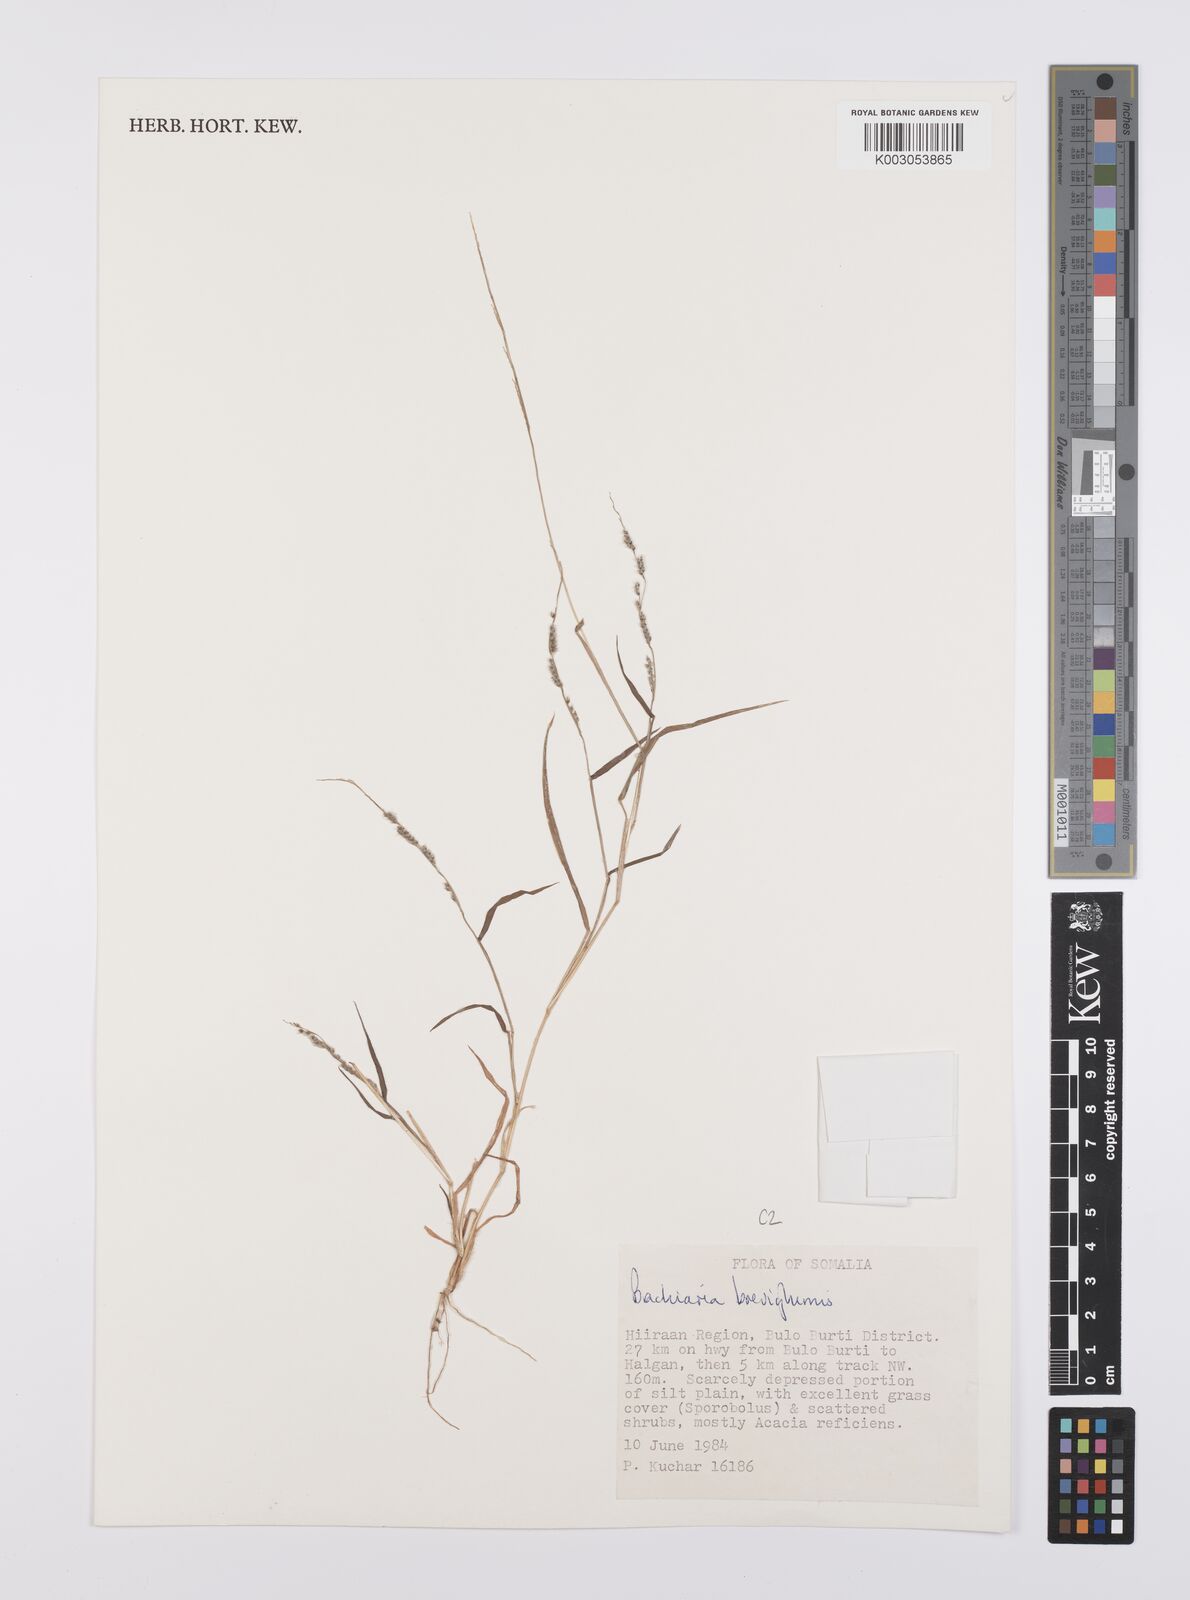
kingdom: Plantae
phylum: Tracheophyta
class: Liliopsida
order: Poales
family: Poaceae
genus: Urochloa
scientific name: Urochloa Brachiaria breviglumis
